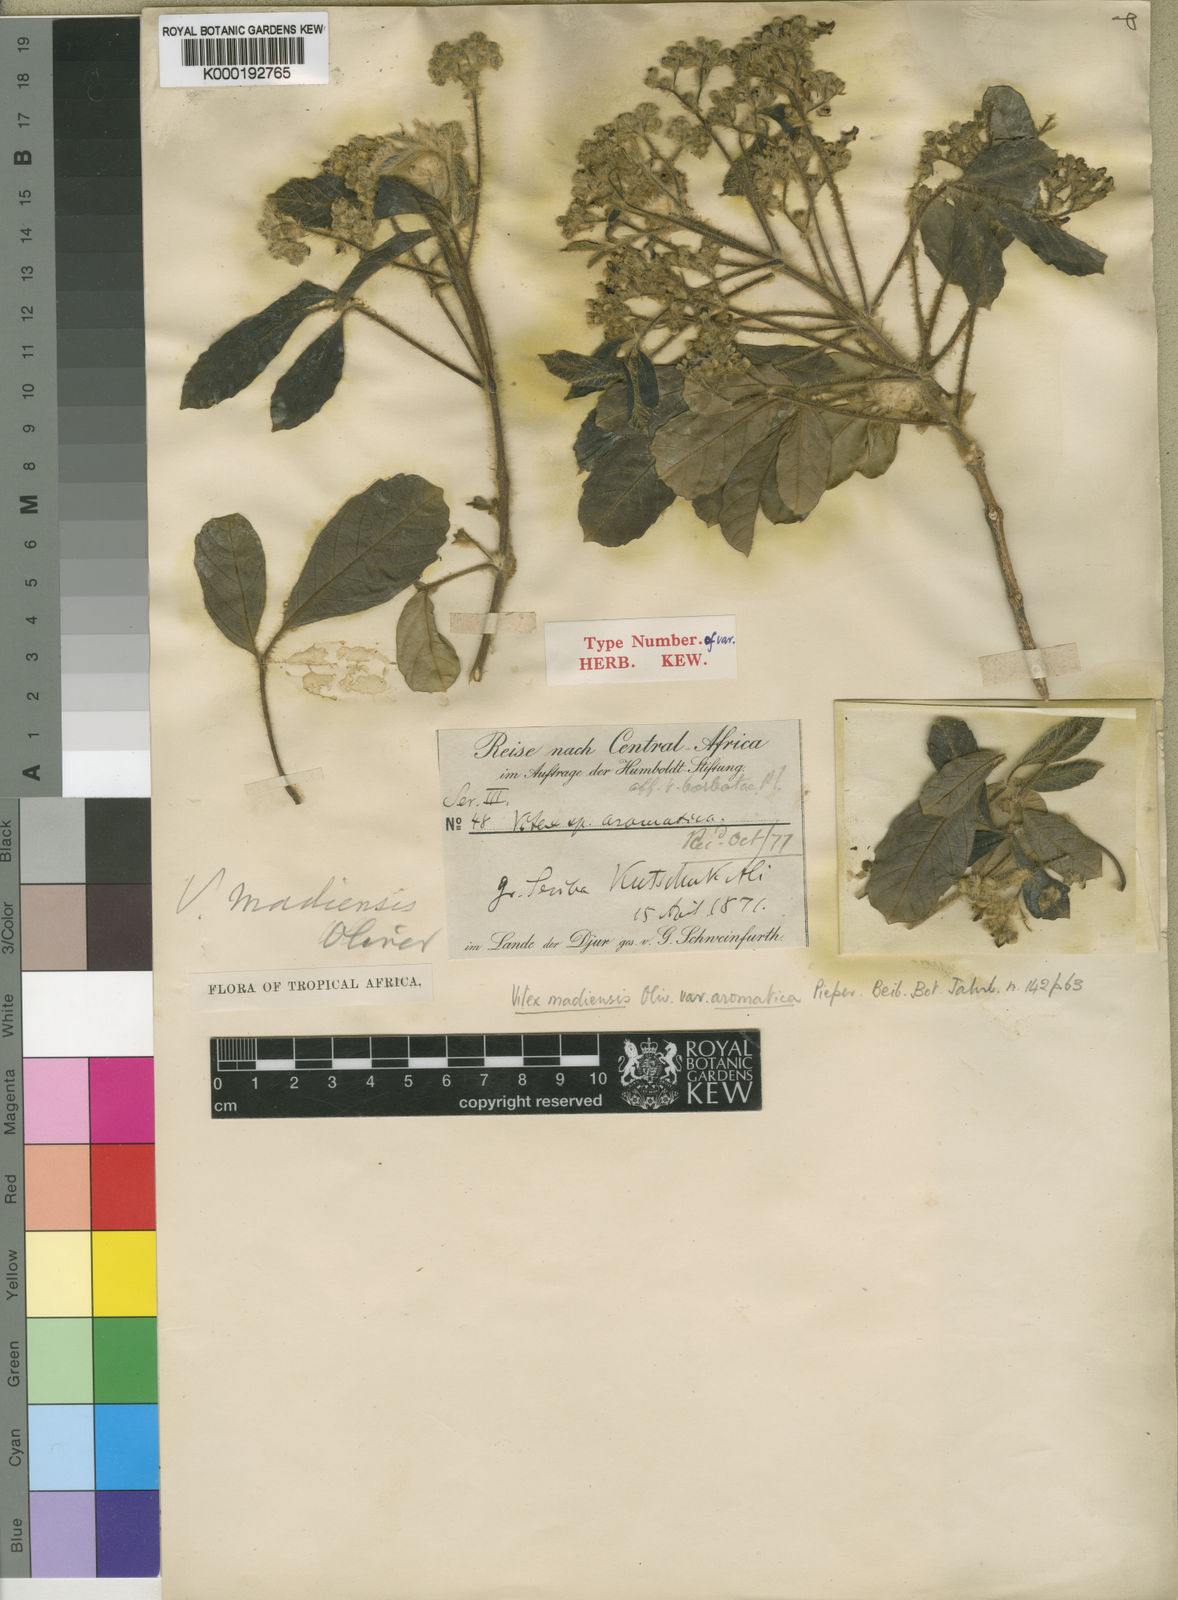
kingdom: Plantae
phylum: Tracheophyta
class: Magnoliopsida
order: Lamiales
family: Lamiaceae
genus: Vitex
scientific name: Vitex madiensis
